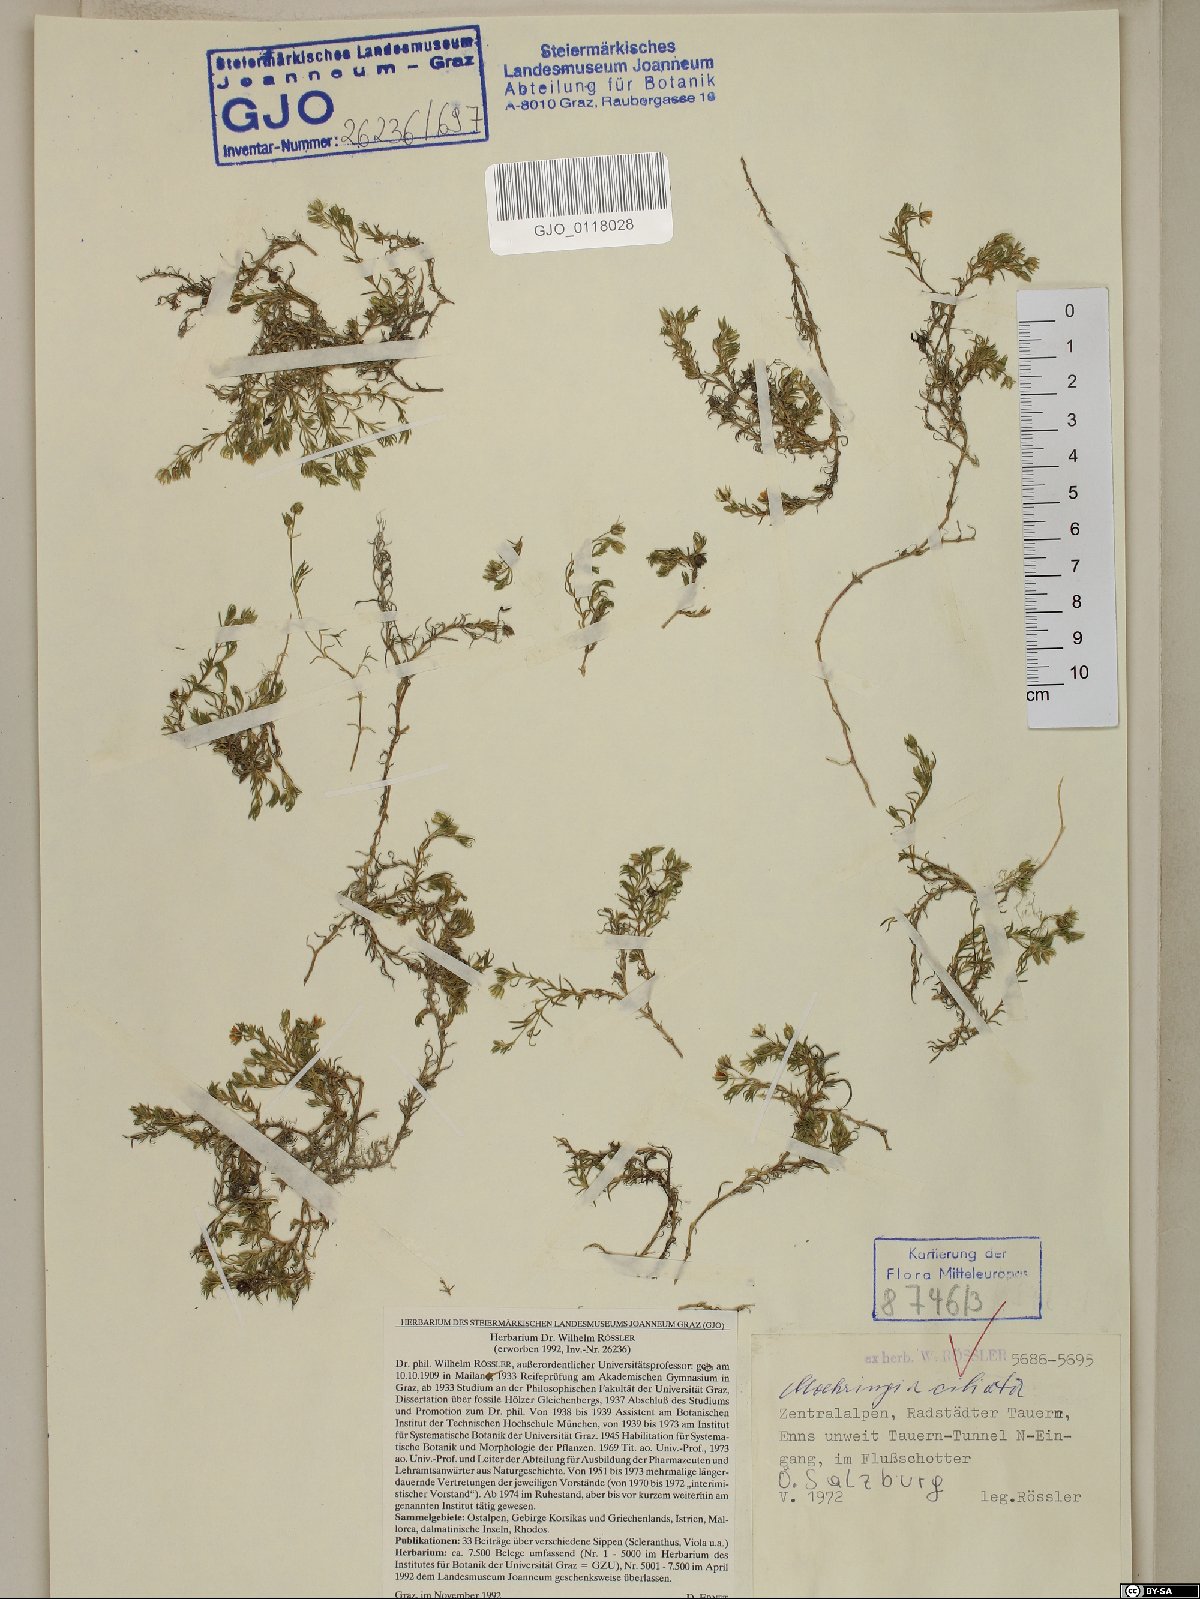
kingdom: Plantae
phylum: Tracheophyta
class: Magnoliopsida
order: Caryophyllales
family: Caryophyllaceae
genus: Moehringia
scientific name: Moehringia ciliata
